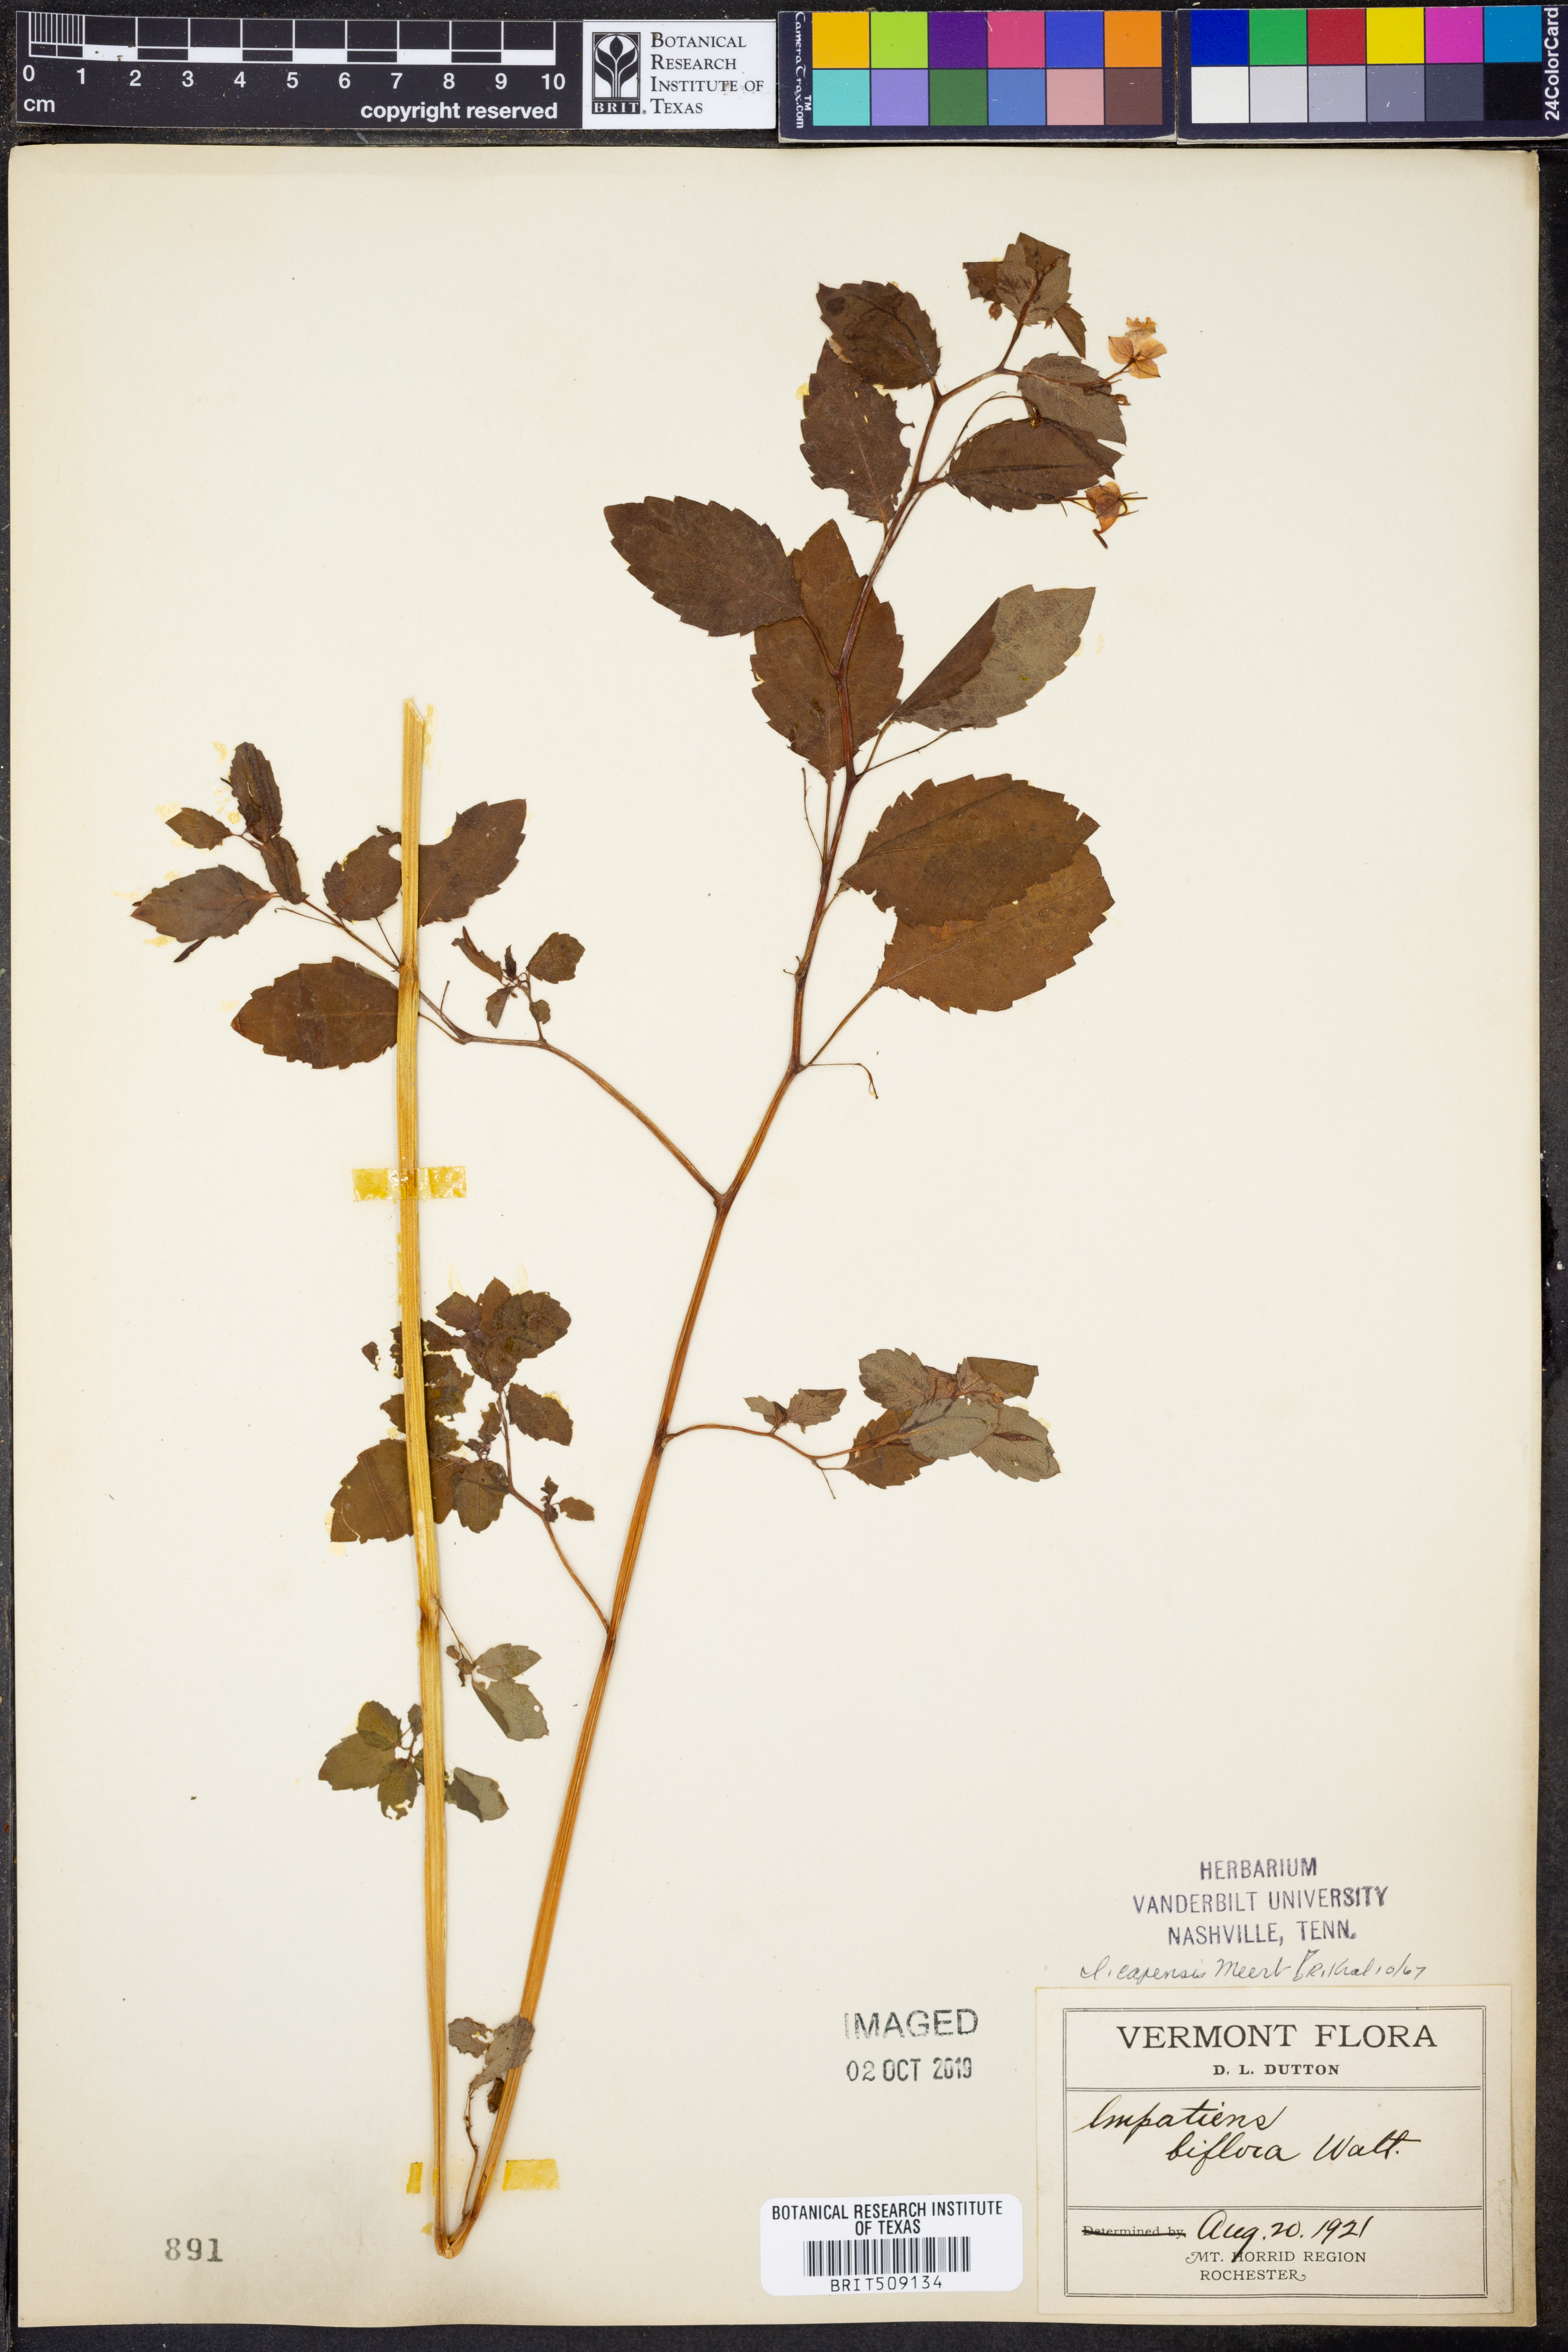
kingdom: Plantae
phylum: Tracheophyta
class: Magnoliopsida
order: Ericales
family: Balsaminaceae
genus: Impatiens
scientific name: Impatiens capensis
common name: Orange balsam
